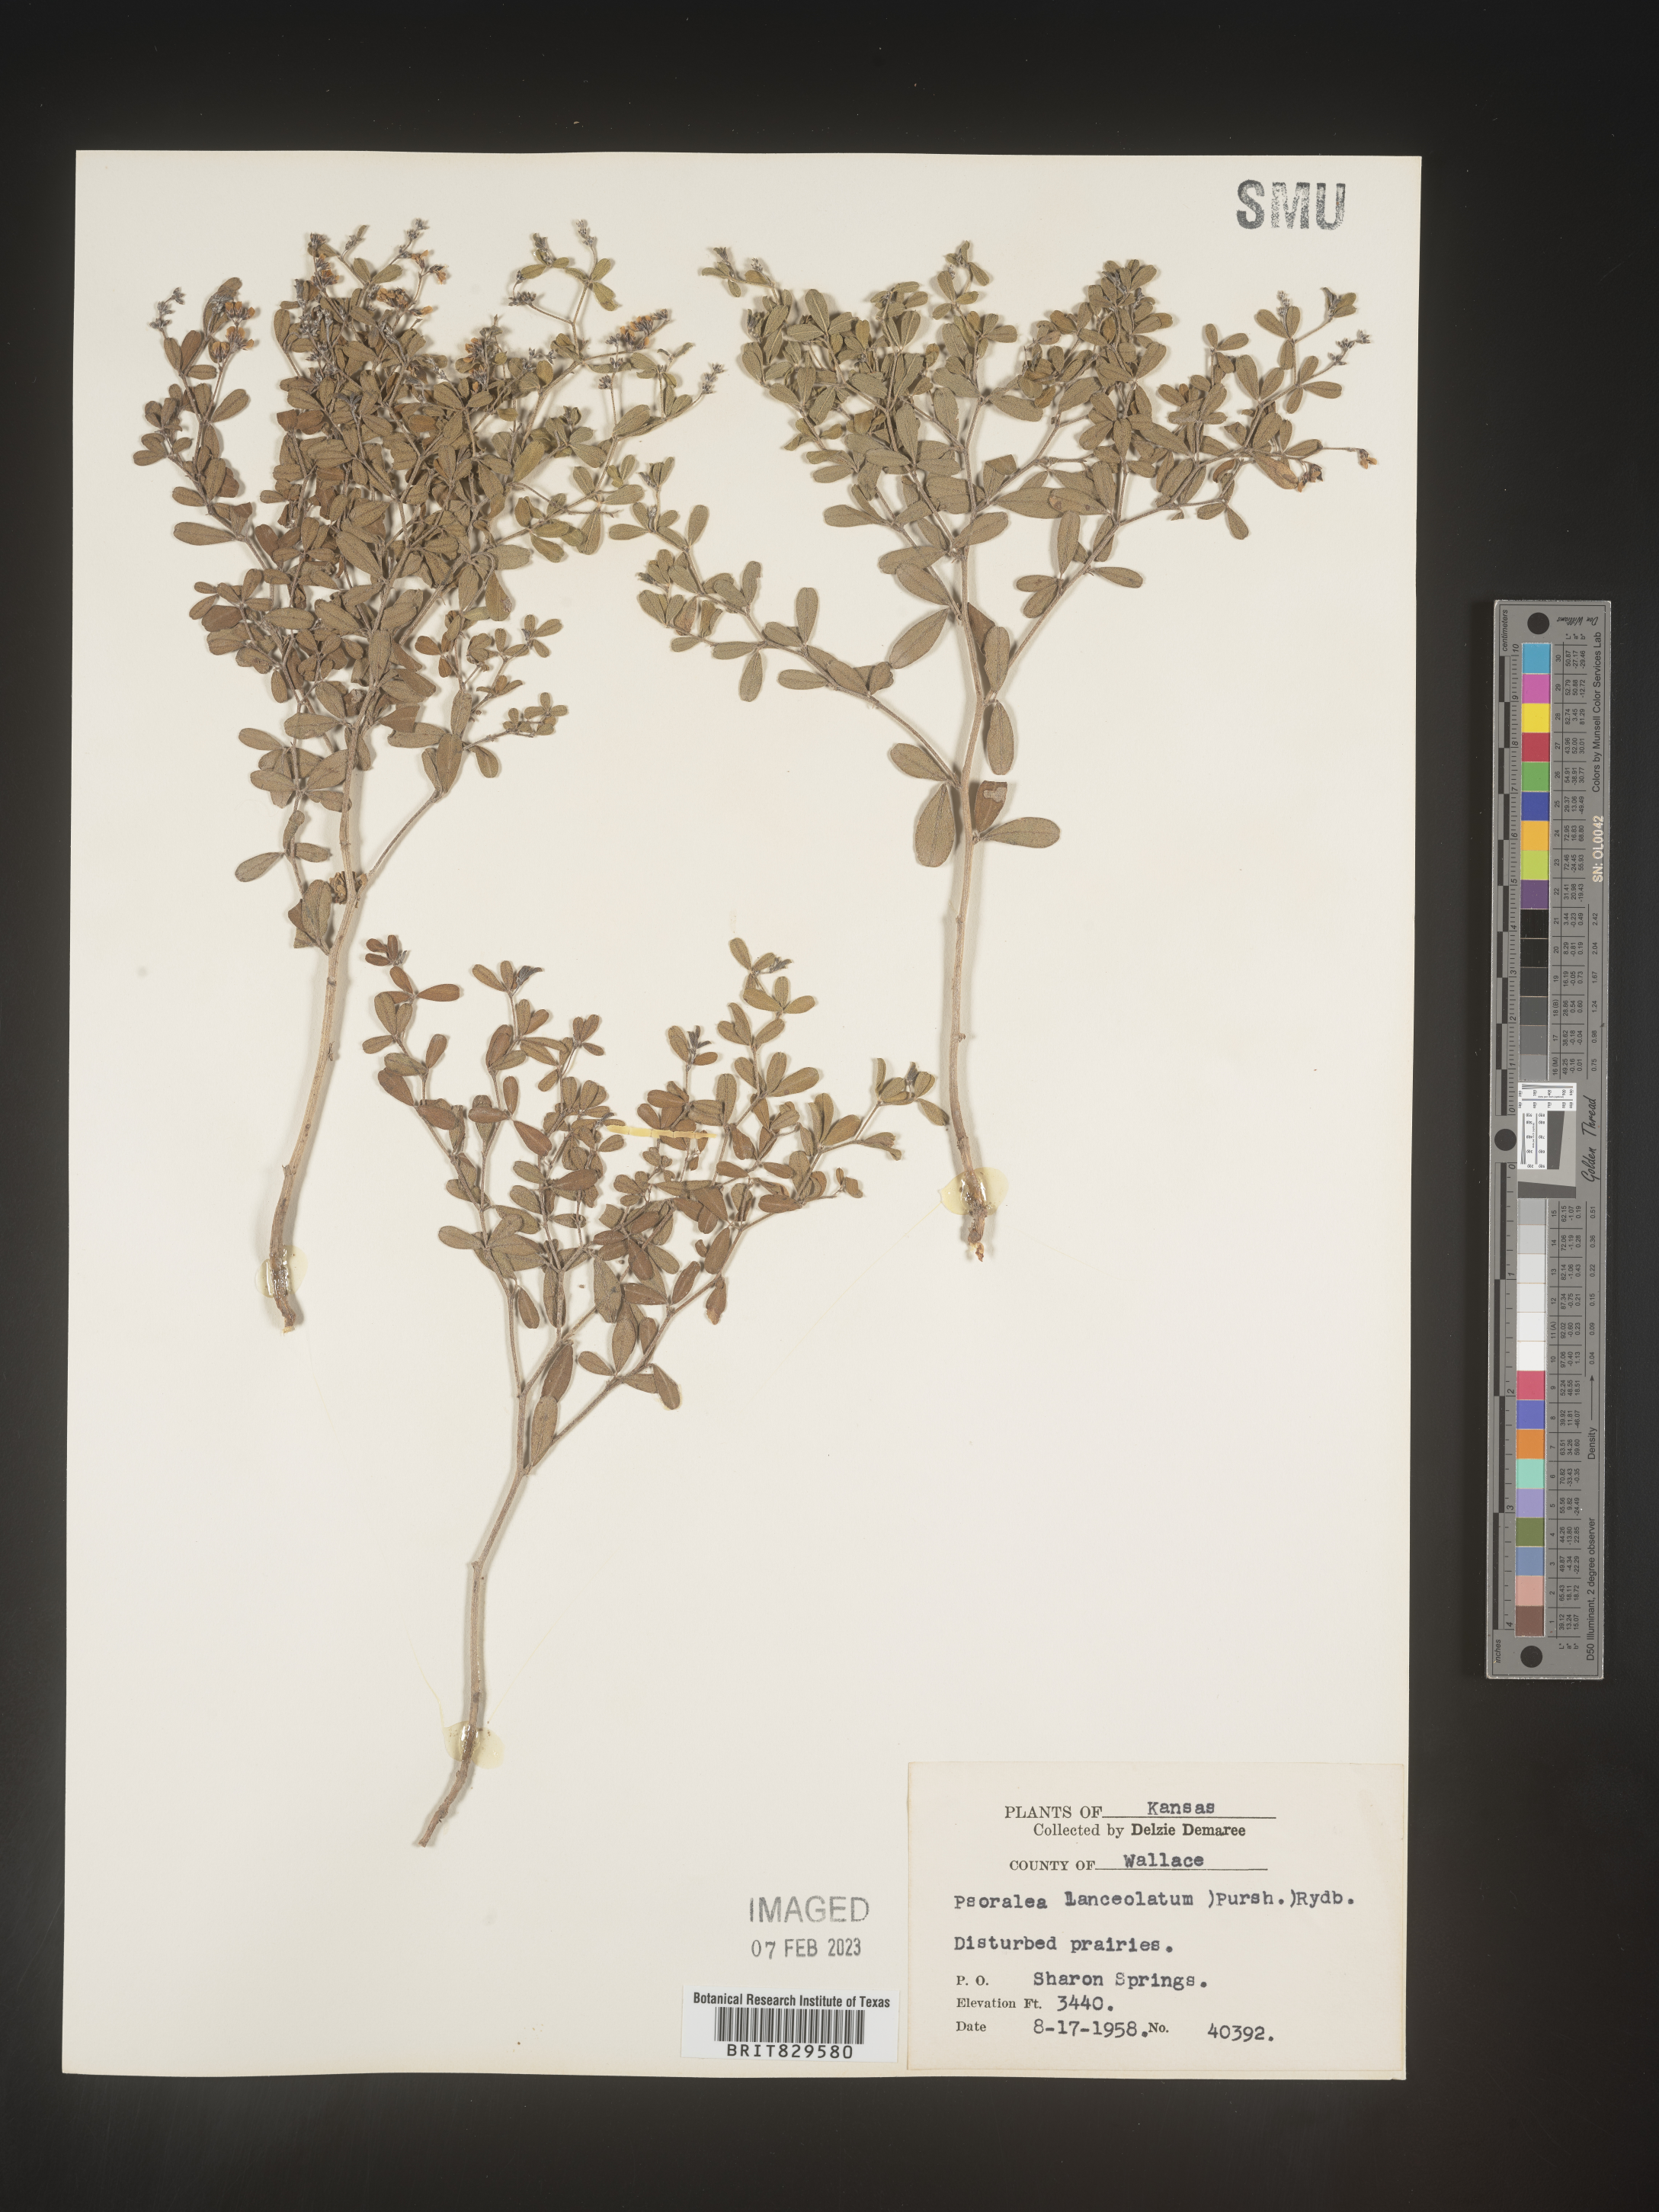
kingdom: Plantae
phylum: Tracheophyta
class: Magnoliopsida
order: Fabales
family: Fabaceae
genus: Pediomelum
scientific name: Pediomelum tenuiflorum
